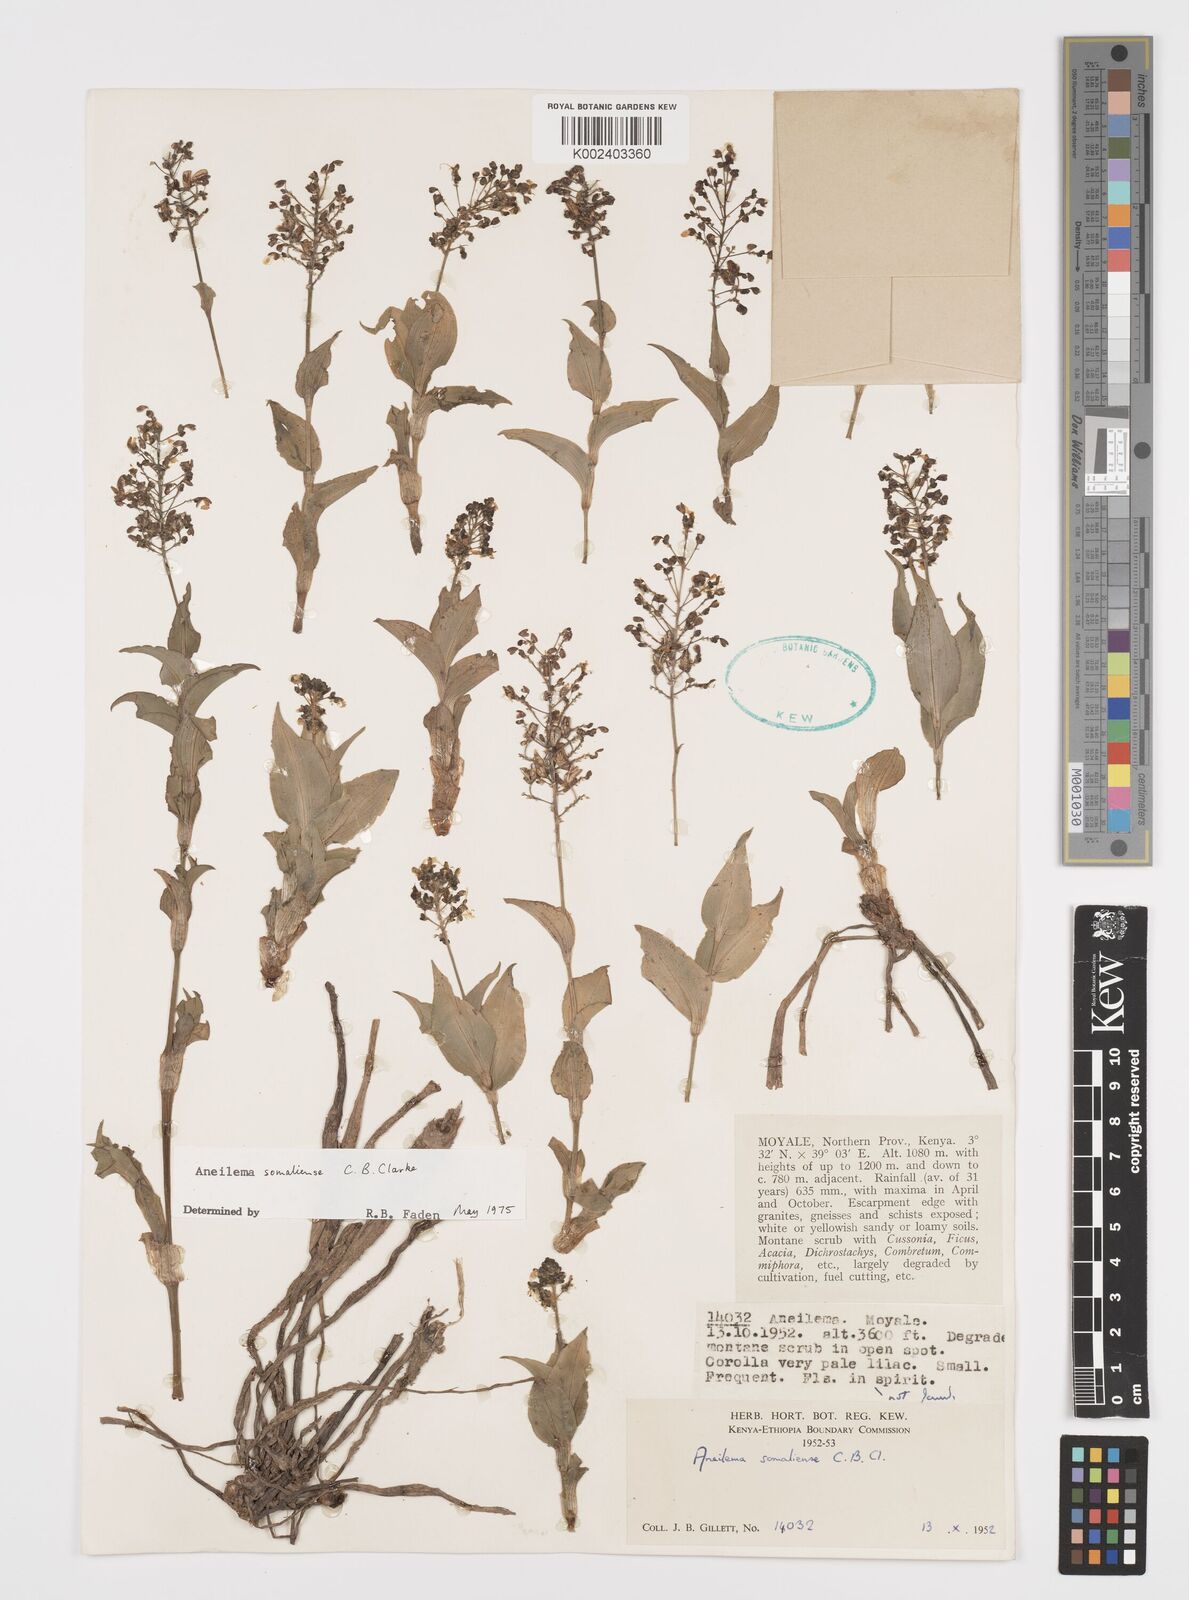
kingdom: Plantae
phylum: Tracheophyta
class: Liliopsida
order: Commelinales
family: Commelinaceae
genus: Aneilema
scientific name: Aneilema somaliense
